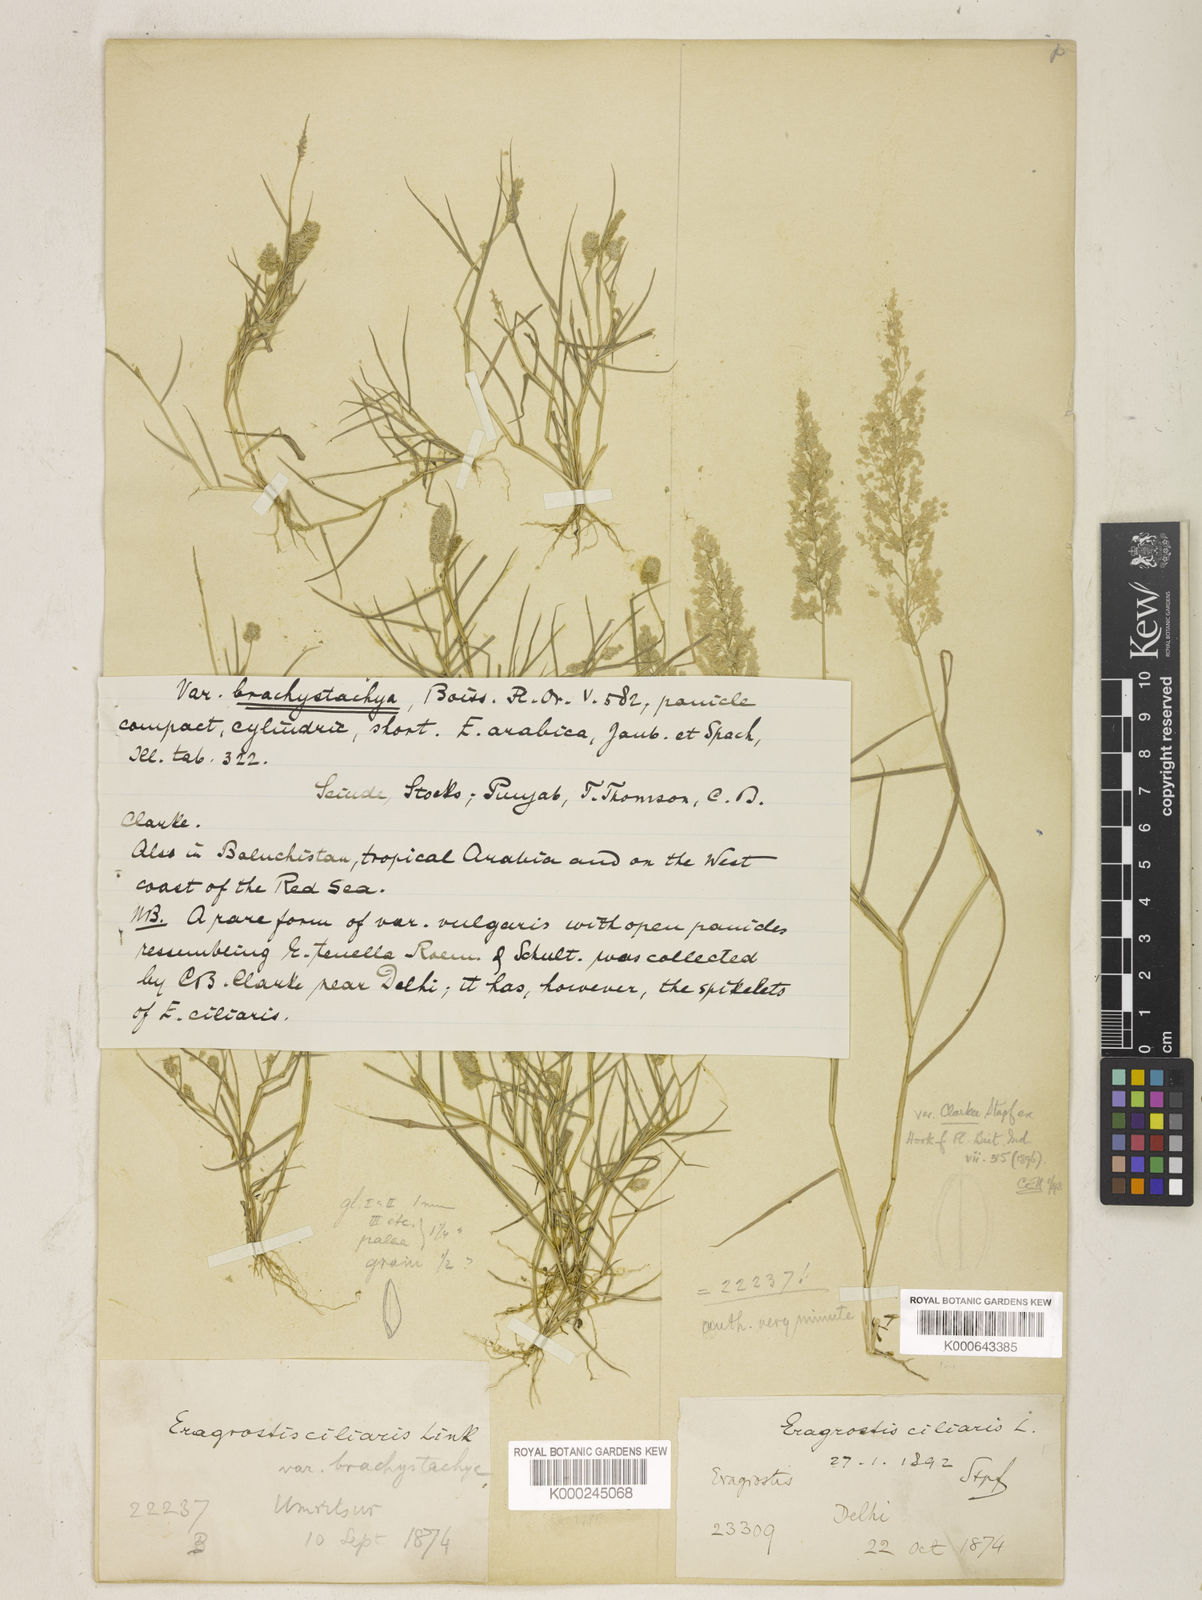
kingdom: Plantae
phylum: Tracheophyta
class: Liliopsida
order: Poales
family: Poaceae
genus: Eragrostis
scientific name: Eragrostis ciliaris
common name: Gophertail lovegrass
